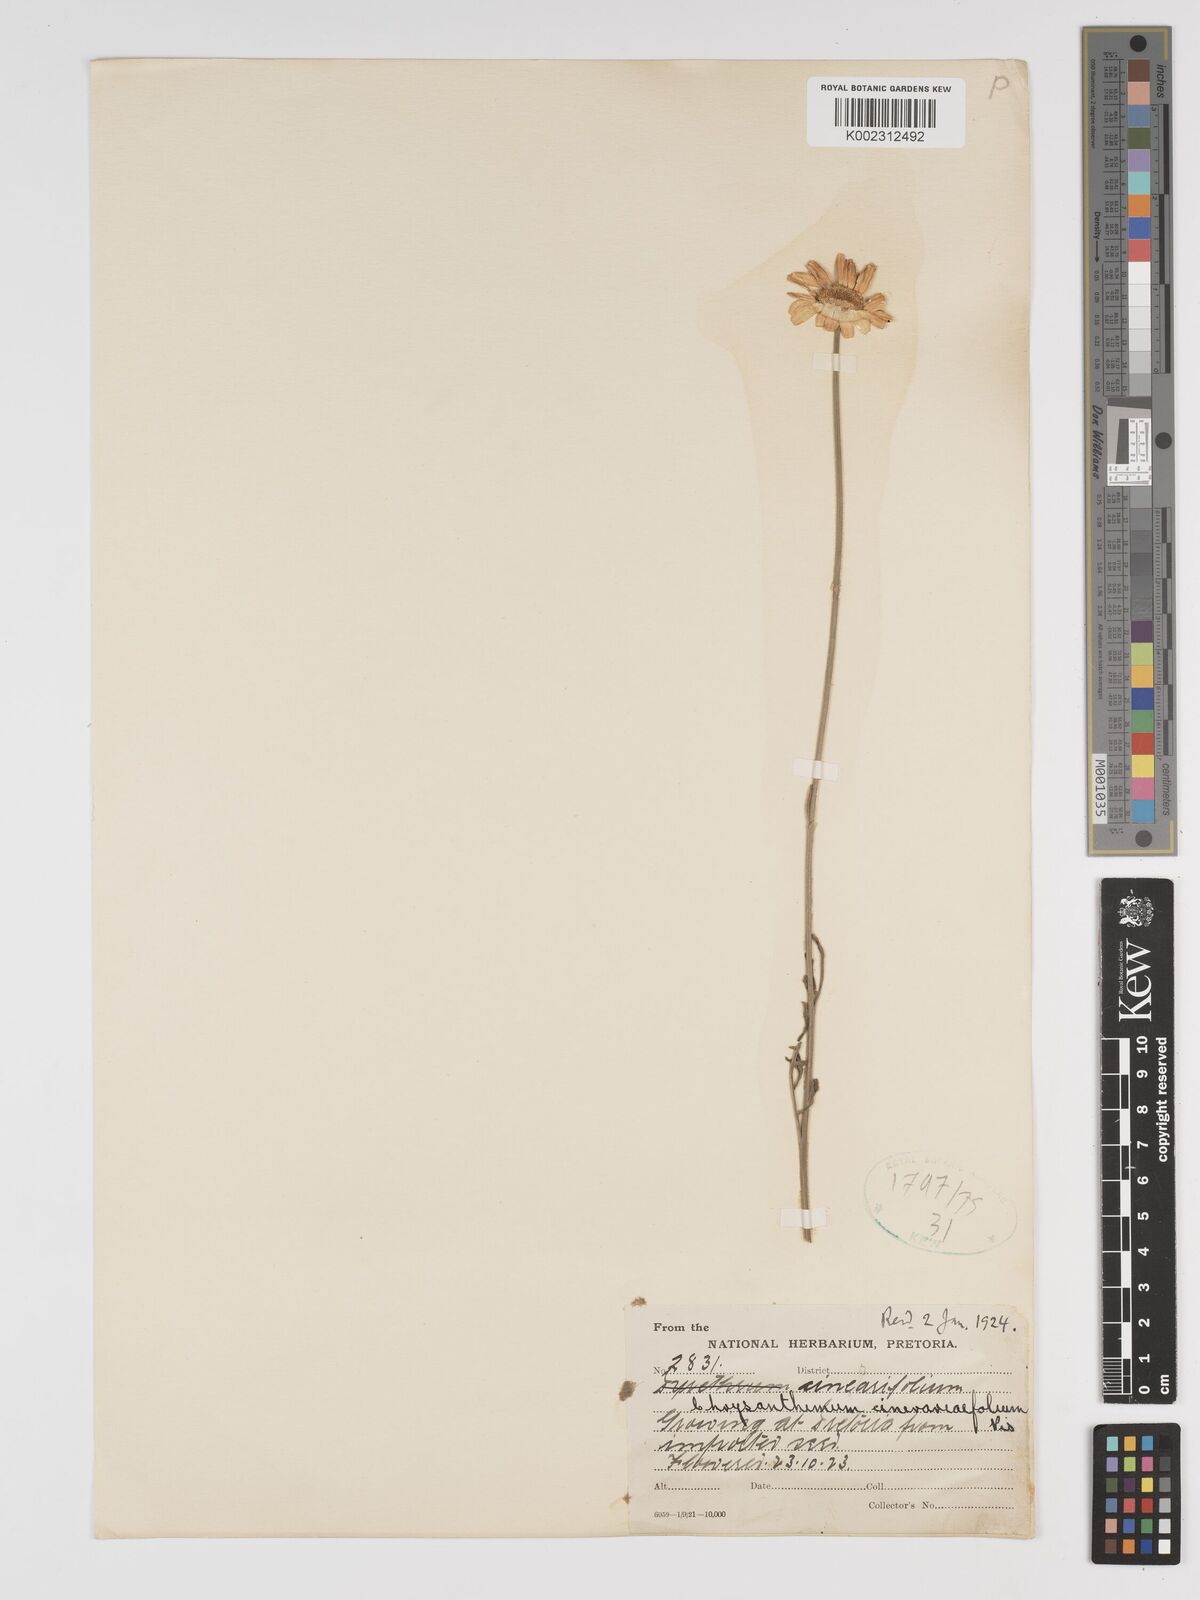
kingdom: Plantae
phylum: Tracheophyta
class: Magnoliopsida
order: Asterales
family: Asteraceae
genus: Tanacetum
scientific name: Tanacetum cinerariifolium
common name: Dalmatian pyrethrum
